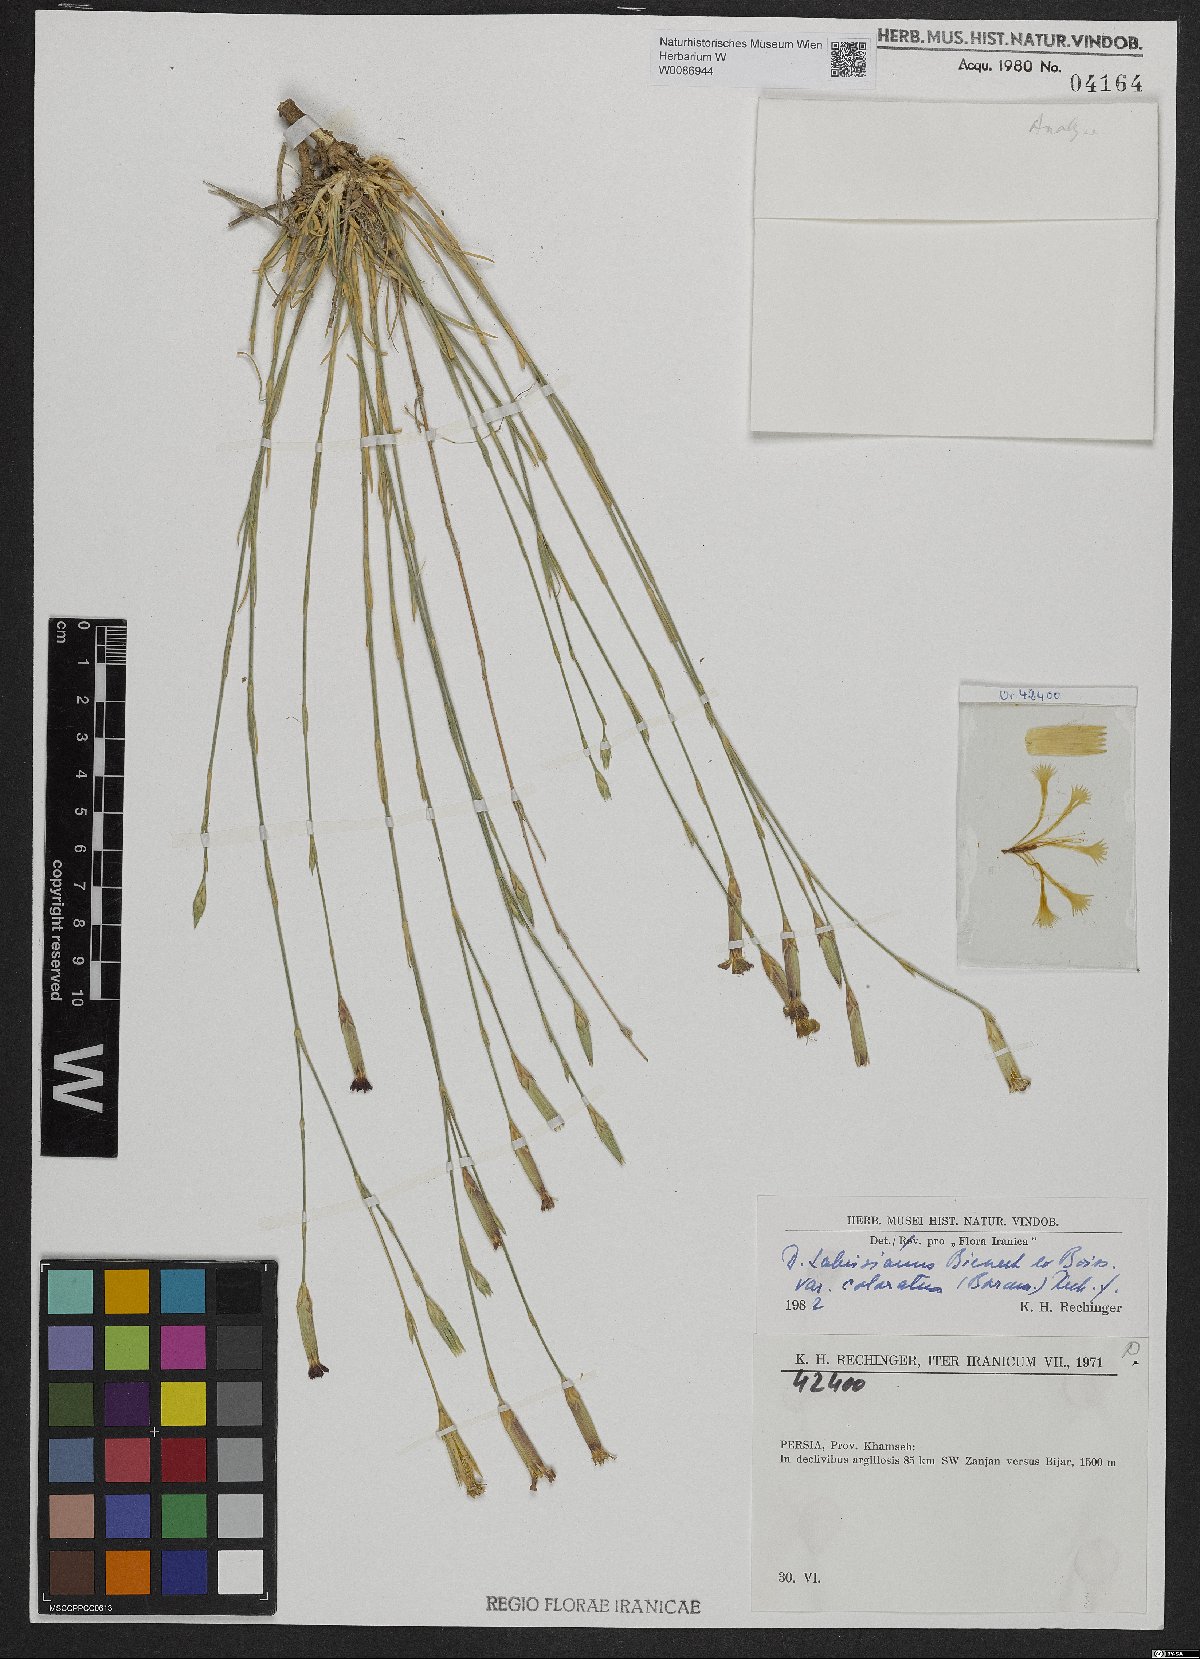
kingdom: Plantae
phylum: Tracheophyta
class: Magnoliopsida
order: Caryophyllales
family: Caryophyllaceae
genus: Dianthus
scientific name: Dianthus tabrisianus
